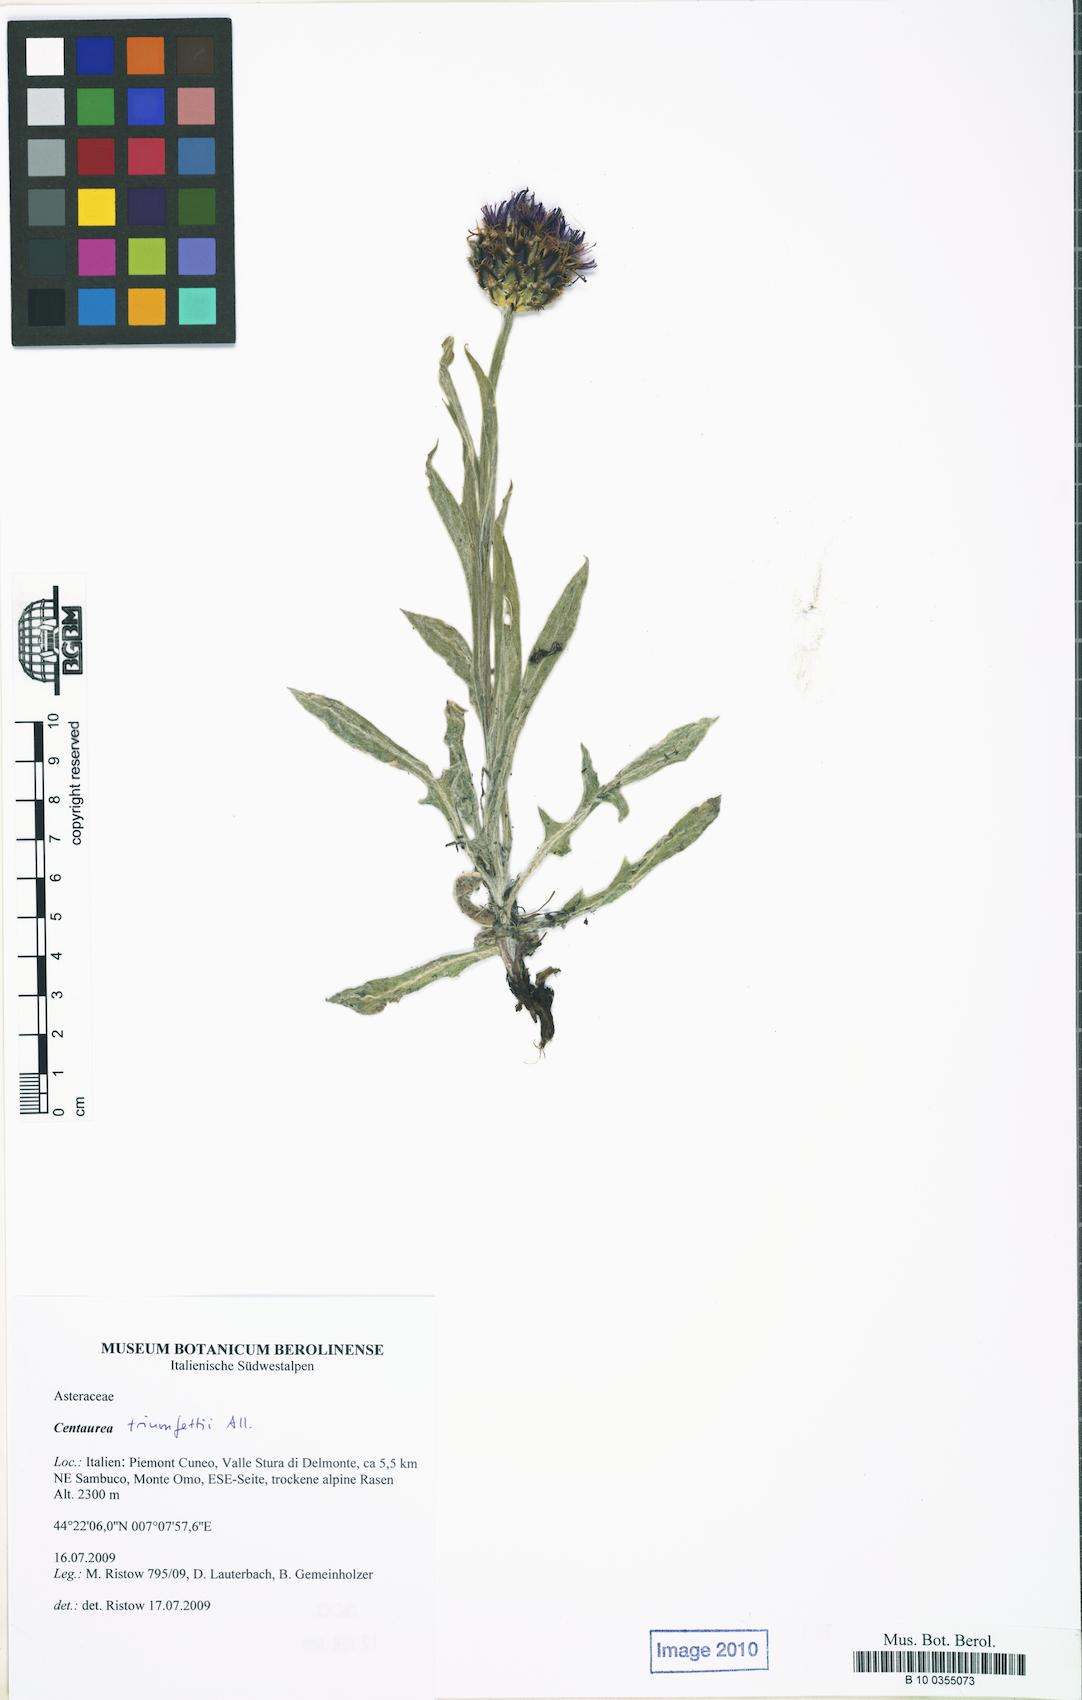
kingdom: Plantae
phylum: Tracheophyta
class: Magnoliopsida
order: Asterales
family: Asteraceae
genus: Centaurea
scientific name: Centaurea triumfettii
